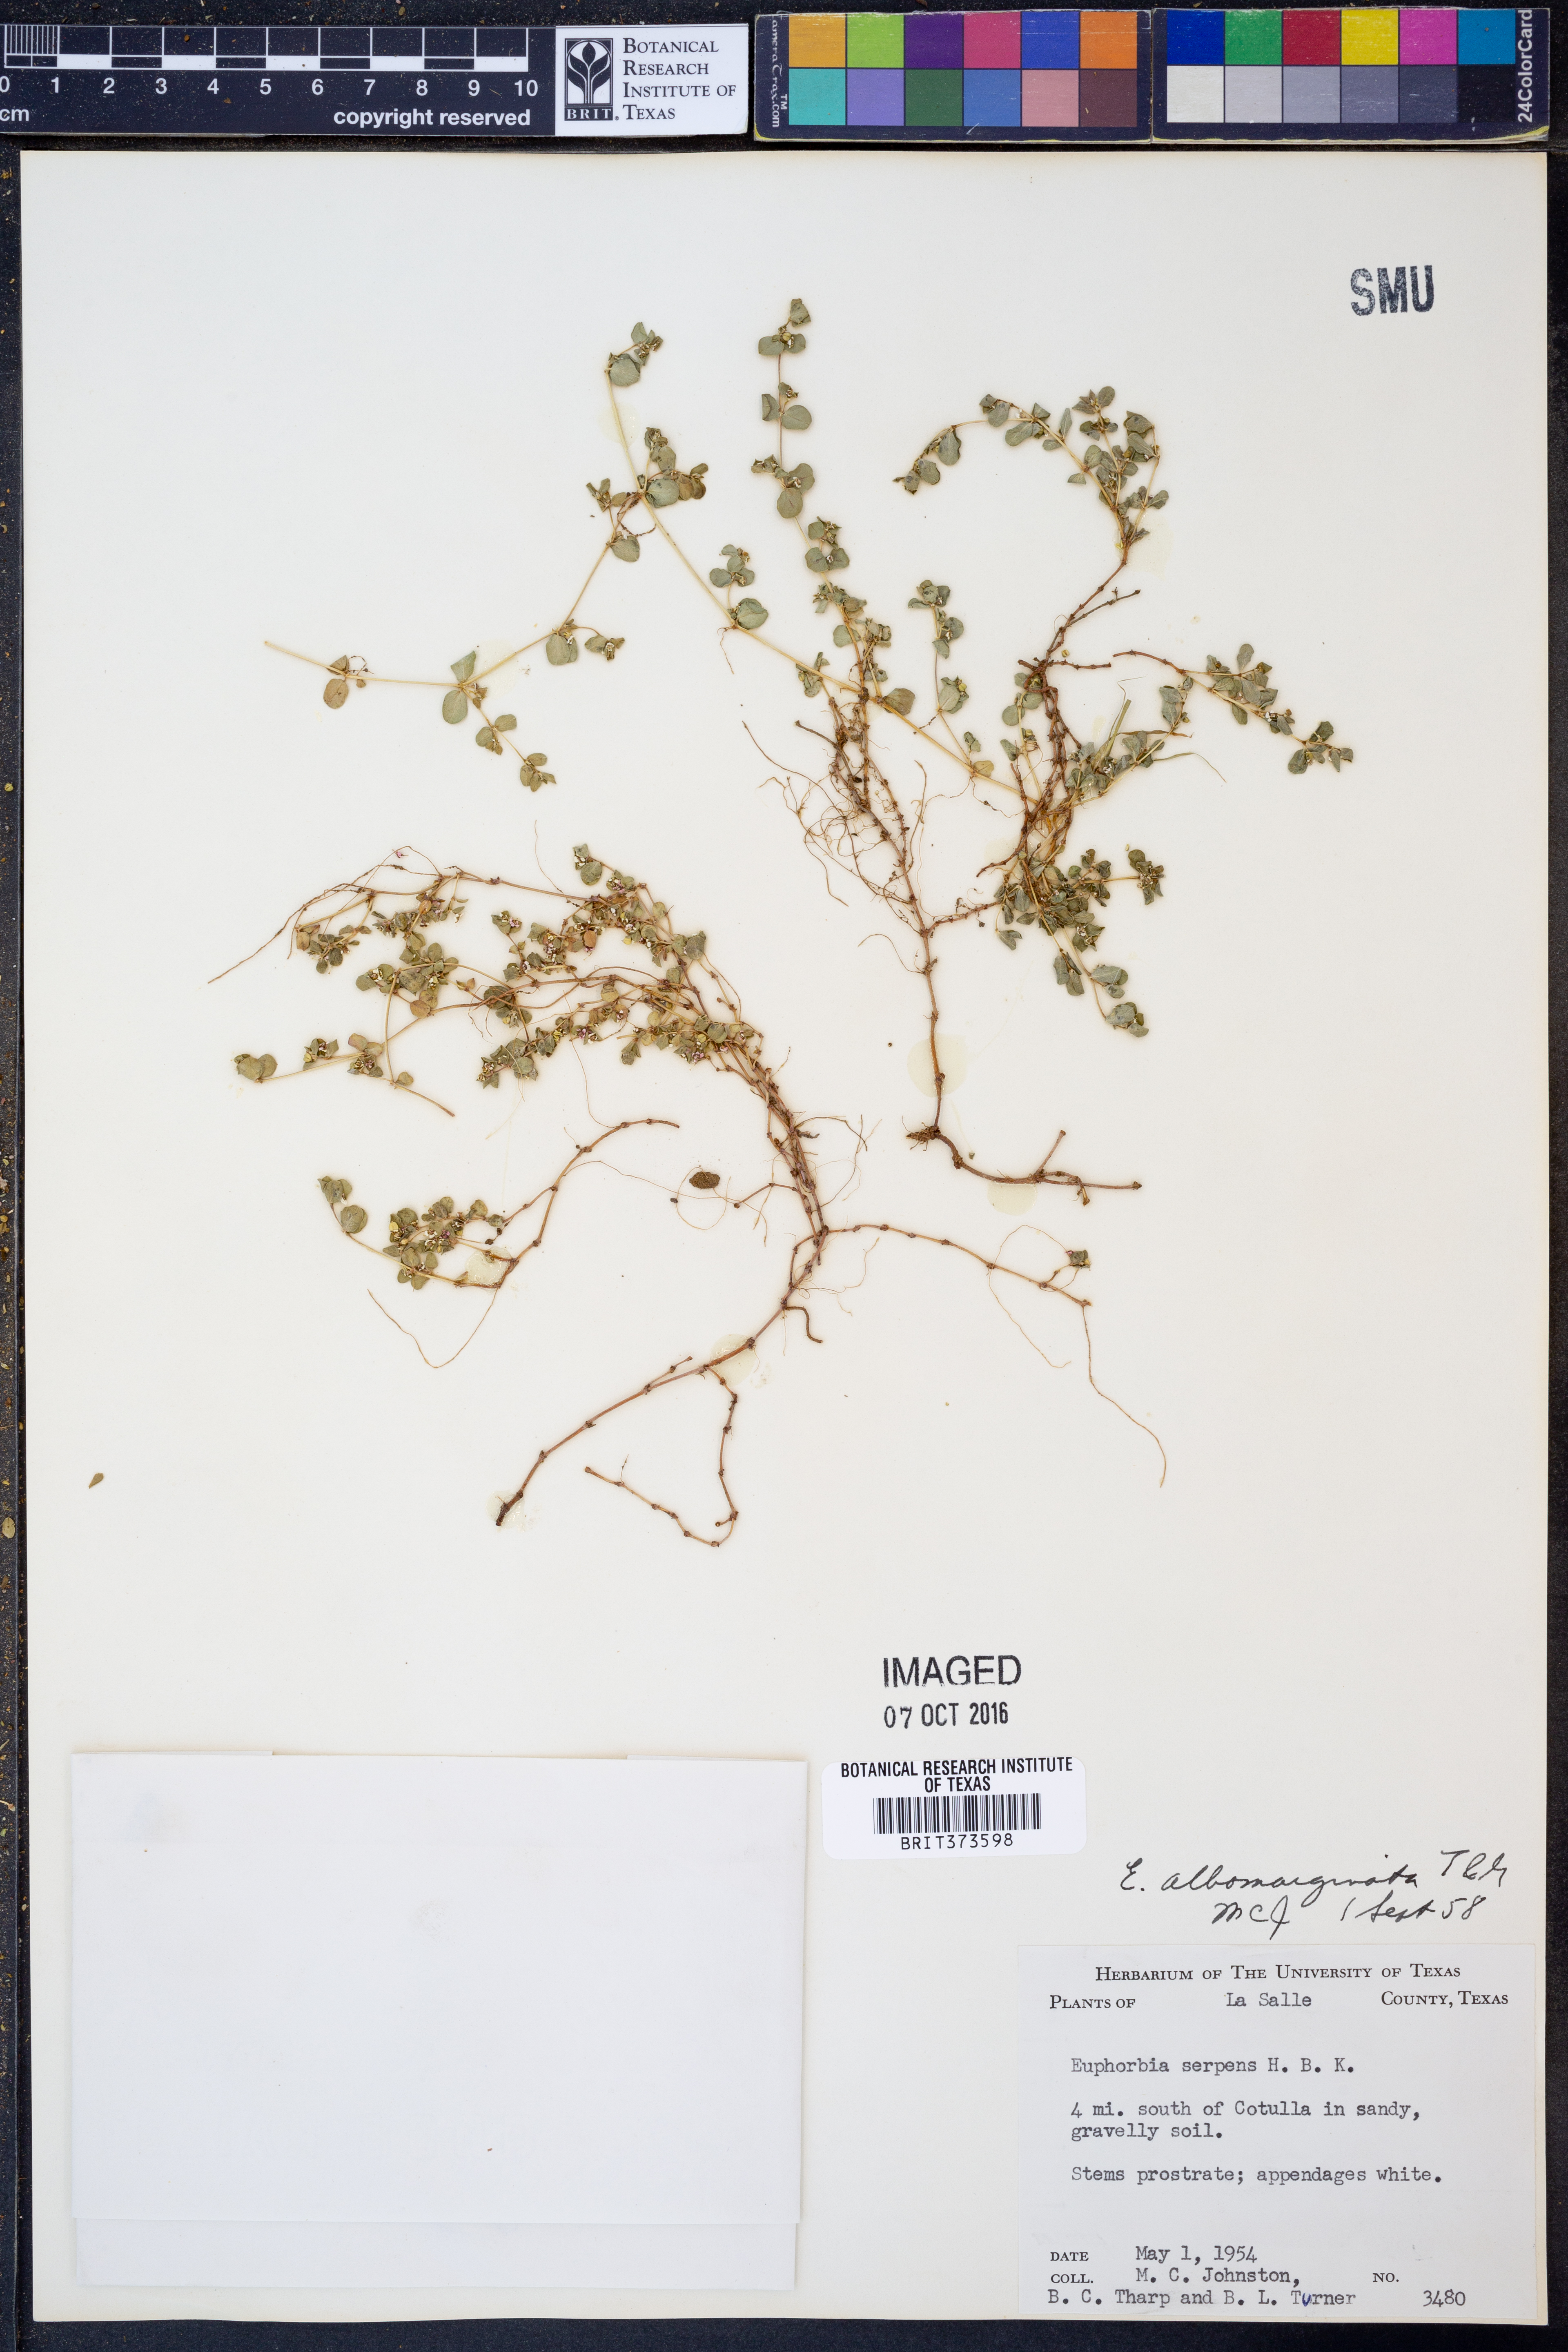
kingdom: Plantae
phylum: Tracheophyta
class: Magnoliopsida
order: Malpighiales
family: Euphorbiaceae
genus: Euphorbia
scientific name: Euphorbia albomarginata
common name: Whitemargin sandmat
